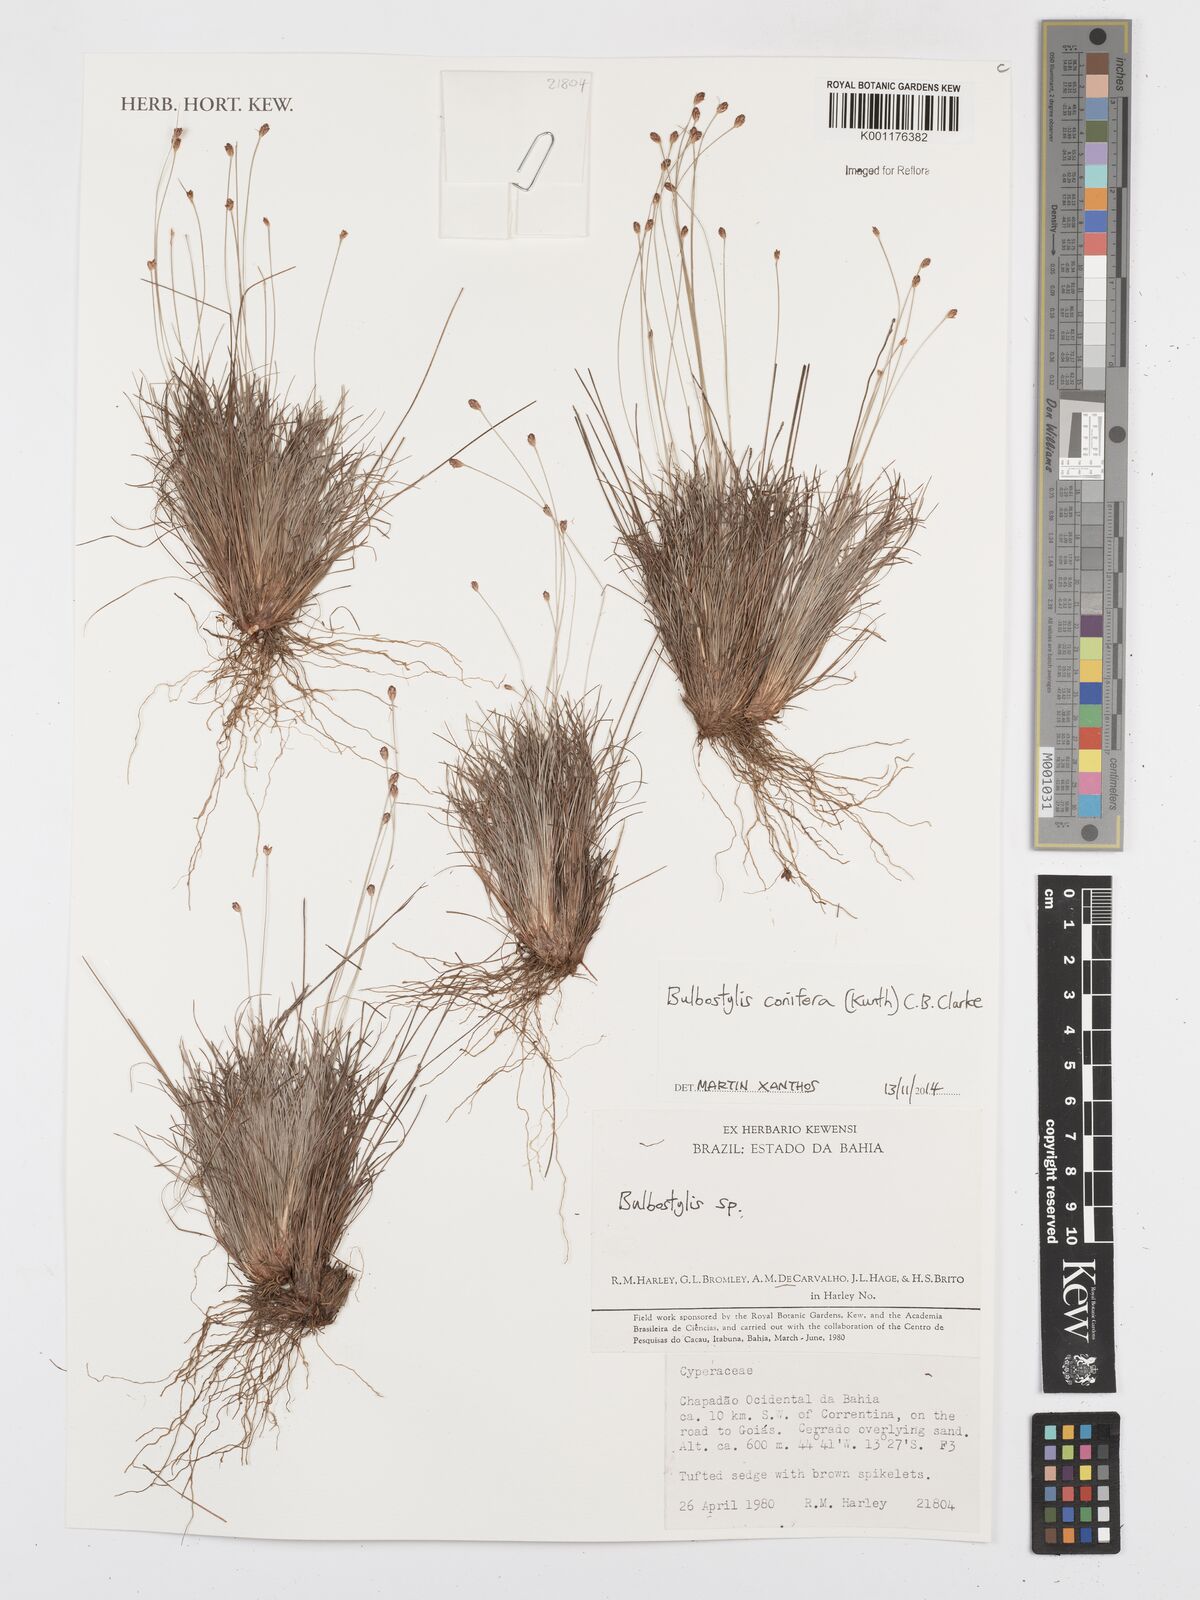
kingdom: Plantae
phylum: Tracheophyta
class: Liliopsida
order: Poales
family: Cyperaceae
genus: Bulbostylis
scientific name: Bulbostylis conifera
